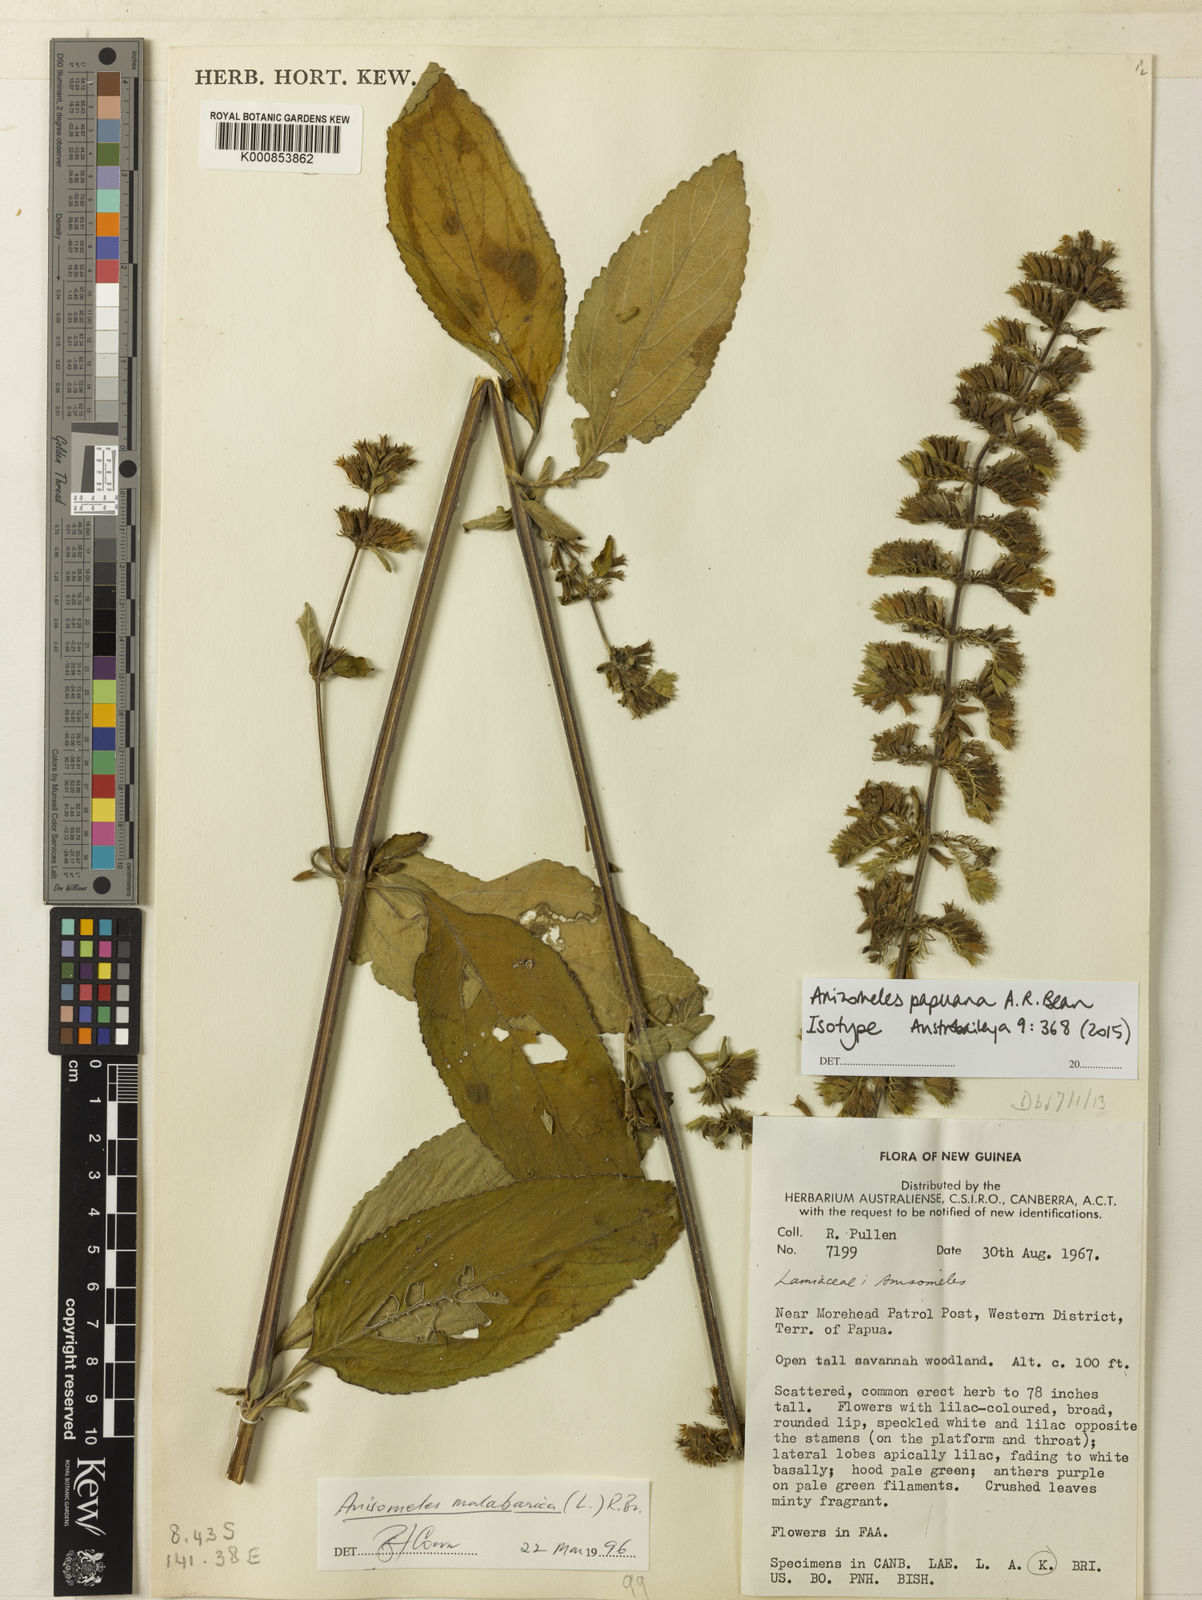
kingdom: Plantae
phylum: Tracheophyta
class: Magnoliopsida
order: Lamiales
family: Lamiaceae
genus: Anisomeles
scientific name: Anisomeles papuana
